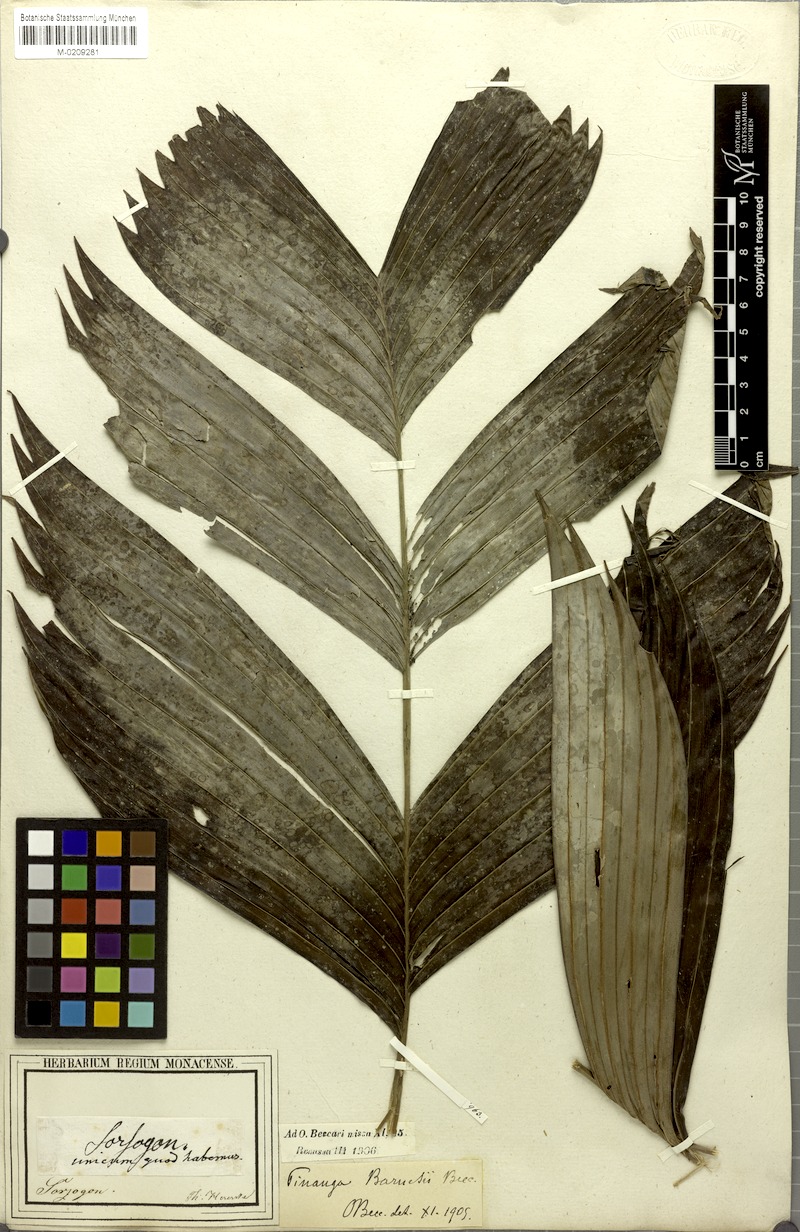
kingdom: Plantae
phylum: Tracheophyta
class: Liliopsida
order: Arecales
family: Arecaceae
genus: Pinanga
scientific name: Pinanga maculata
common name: Tiger palm
